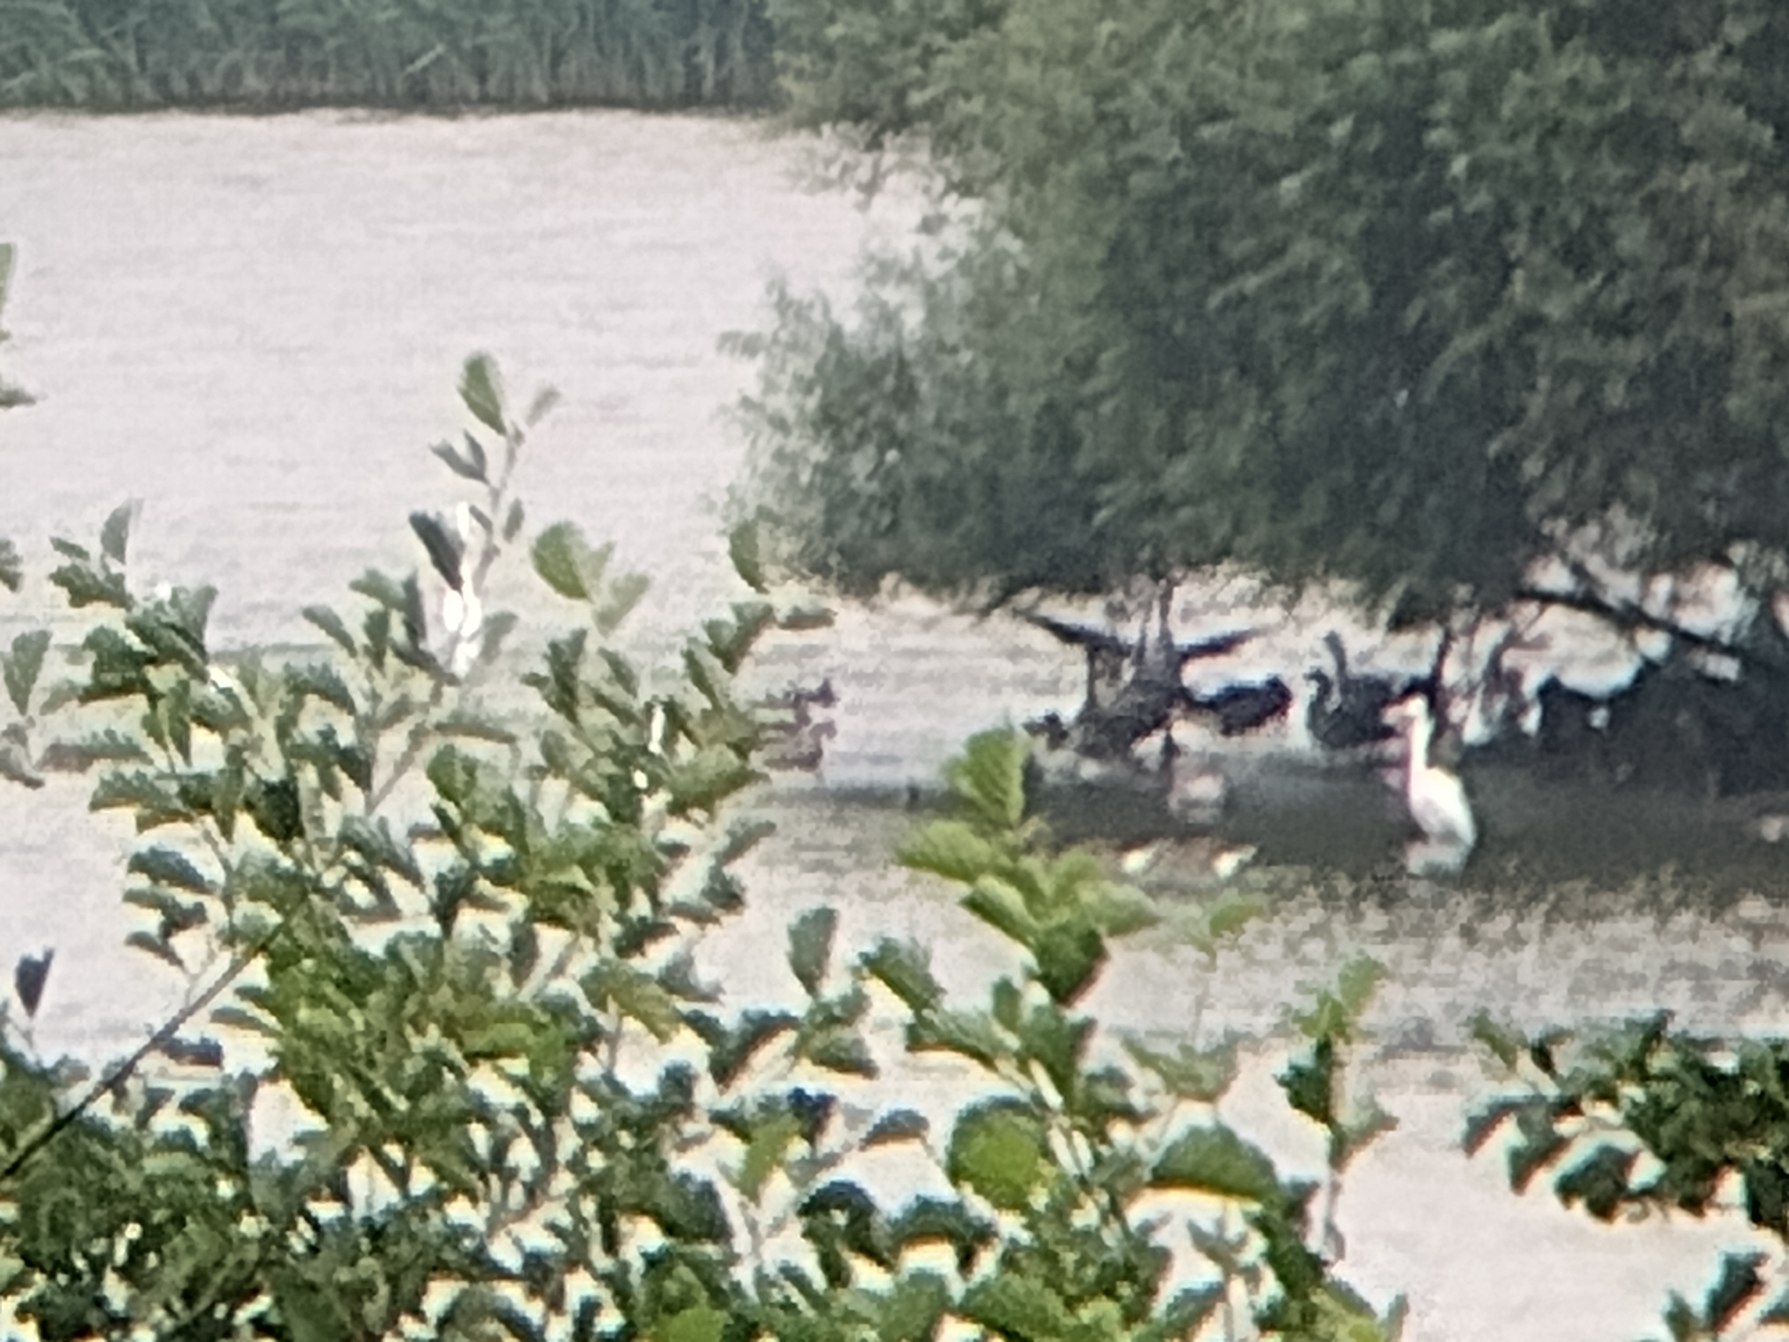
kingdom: Animalia
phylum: Chordata
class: Aves
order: Pelecaniformes
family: Ardeidae
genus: Ardea
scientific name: Ardea alba
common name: Sølvhejre
